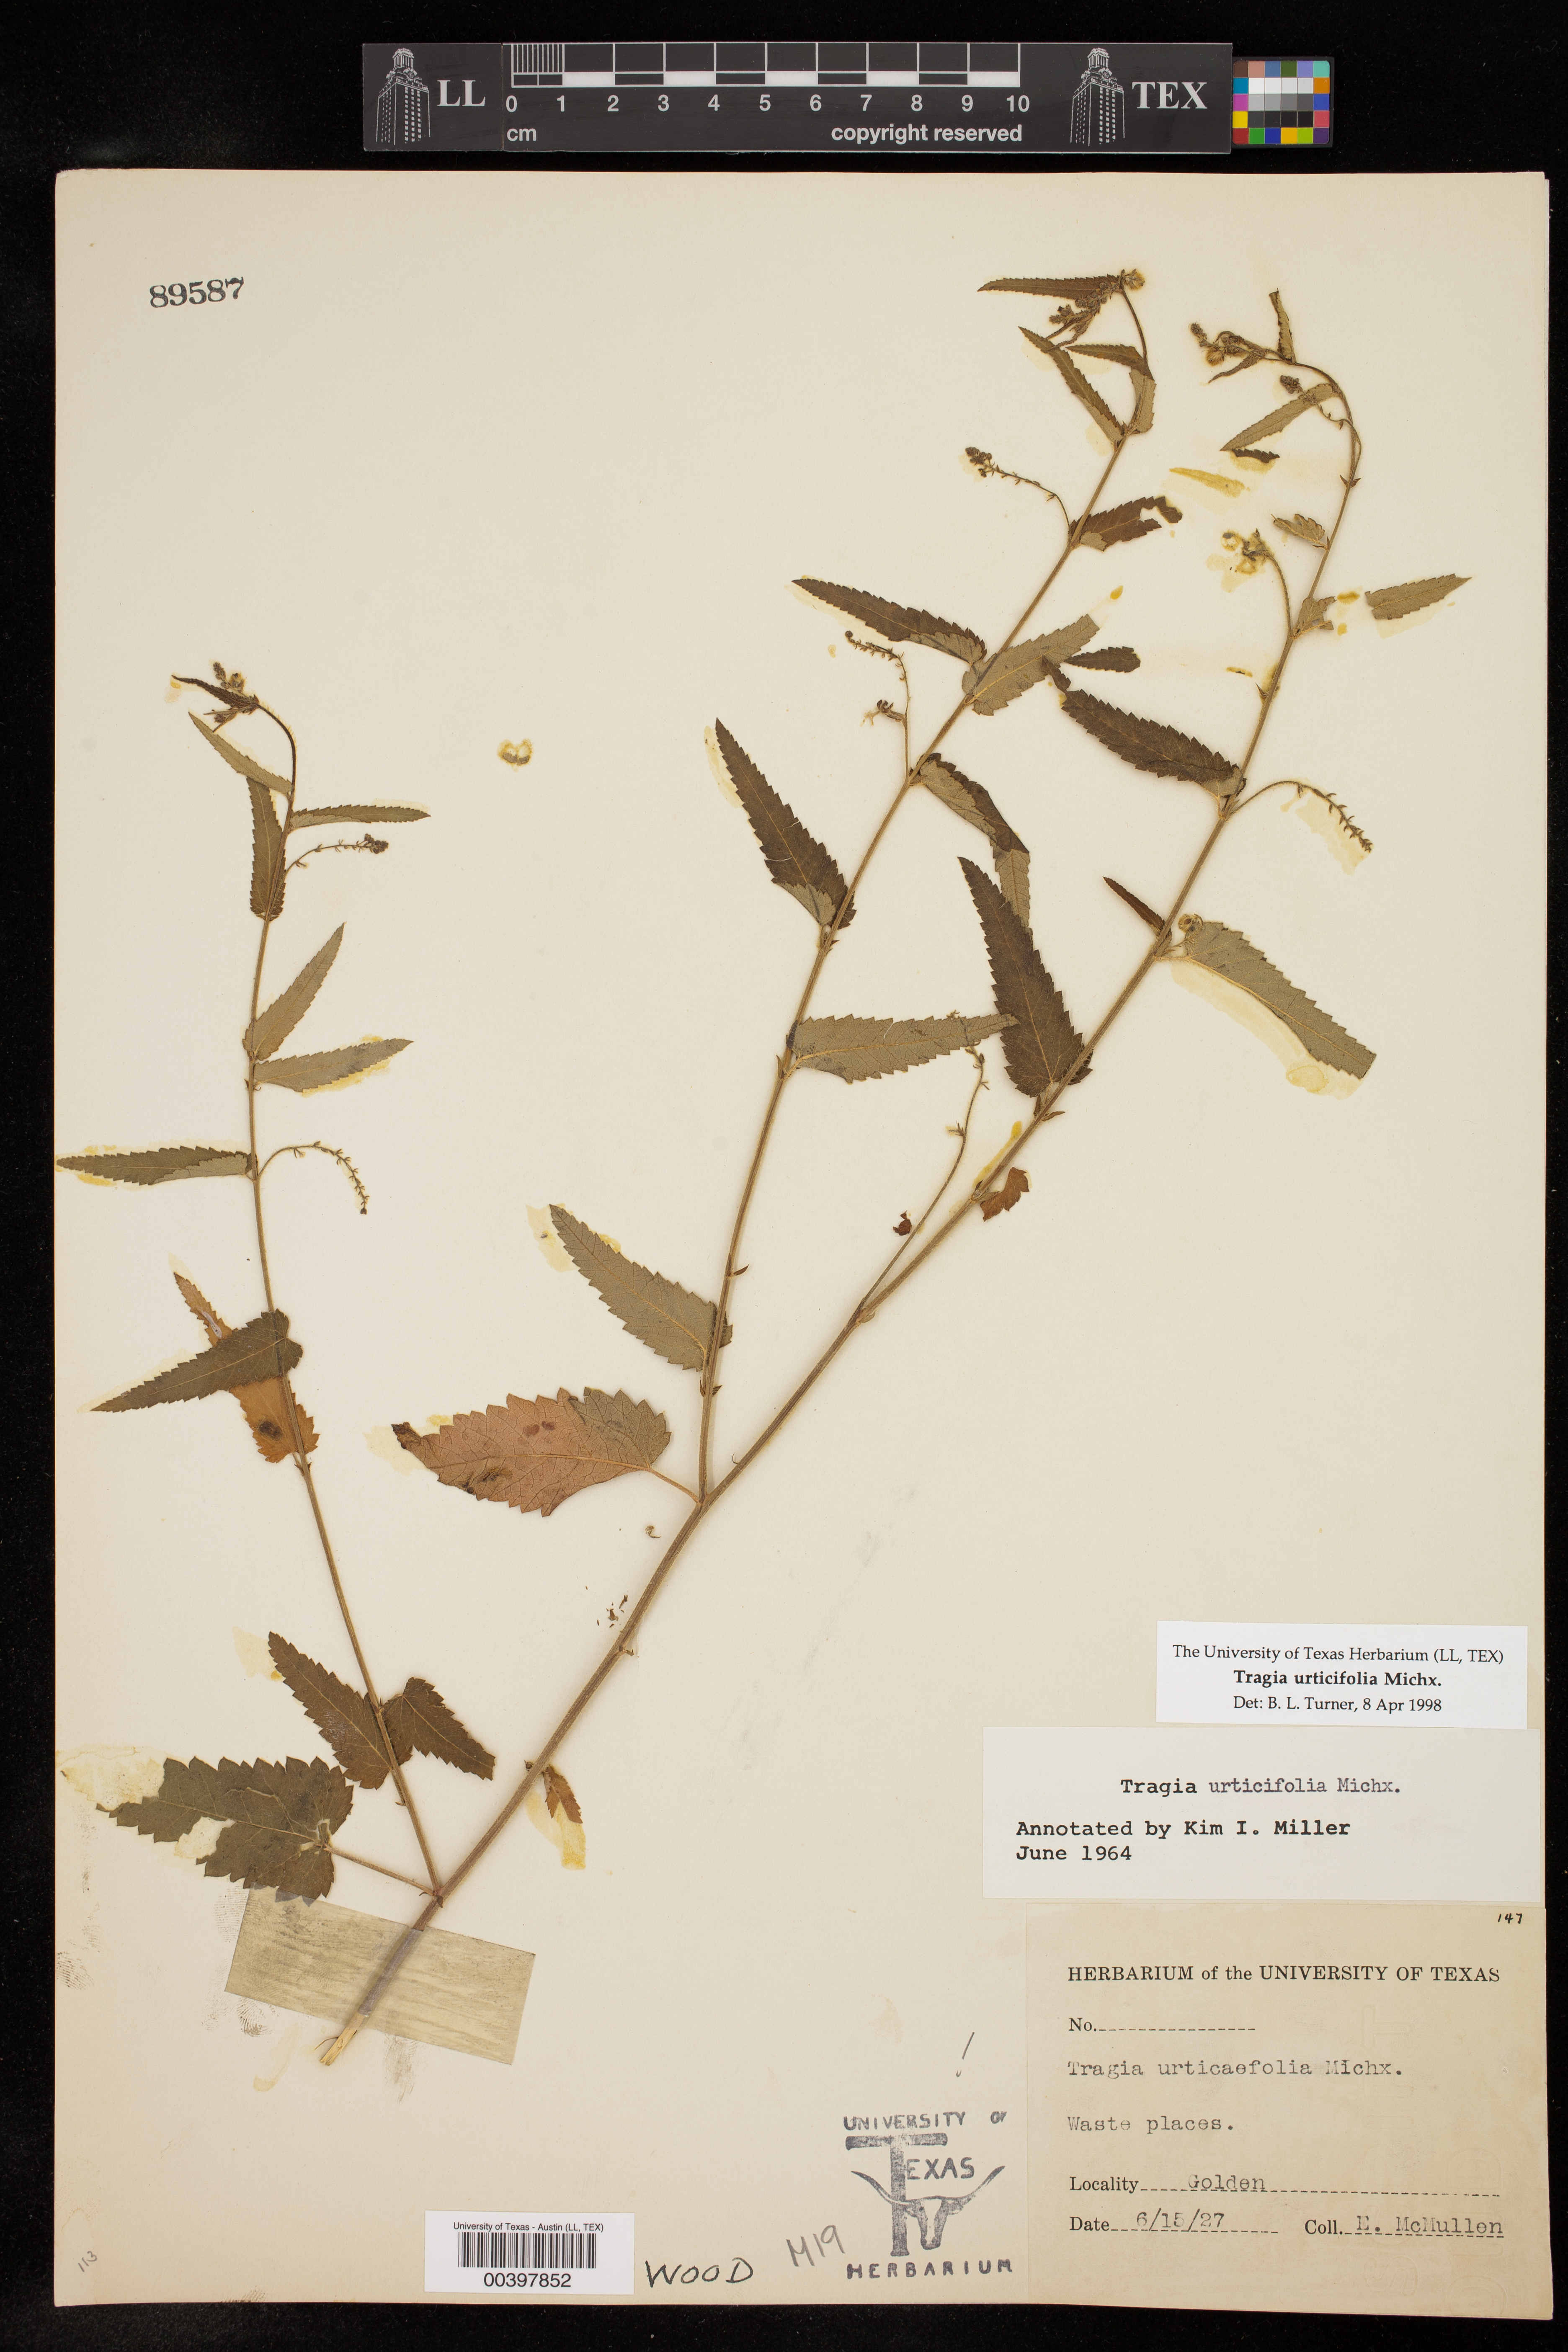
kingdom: Plantae
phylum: Tracheophyta
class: Magnoliopsida
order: Malpighiales
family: Euphorbiaceae
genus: Tragia
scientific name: Tragia urticifolia
